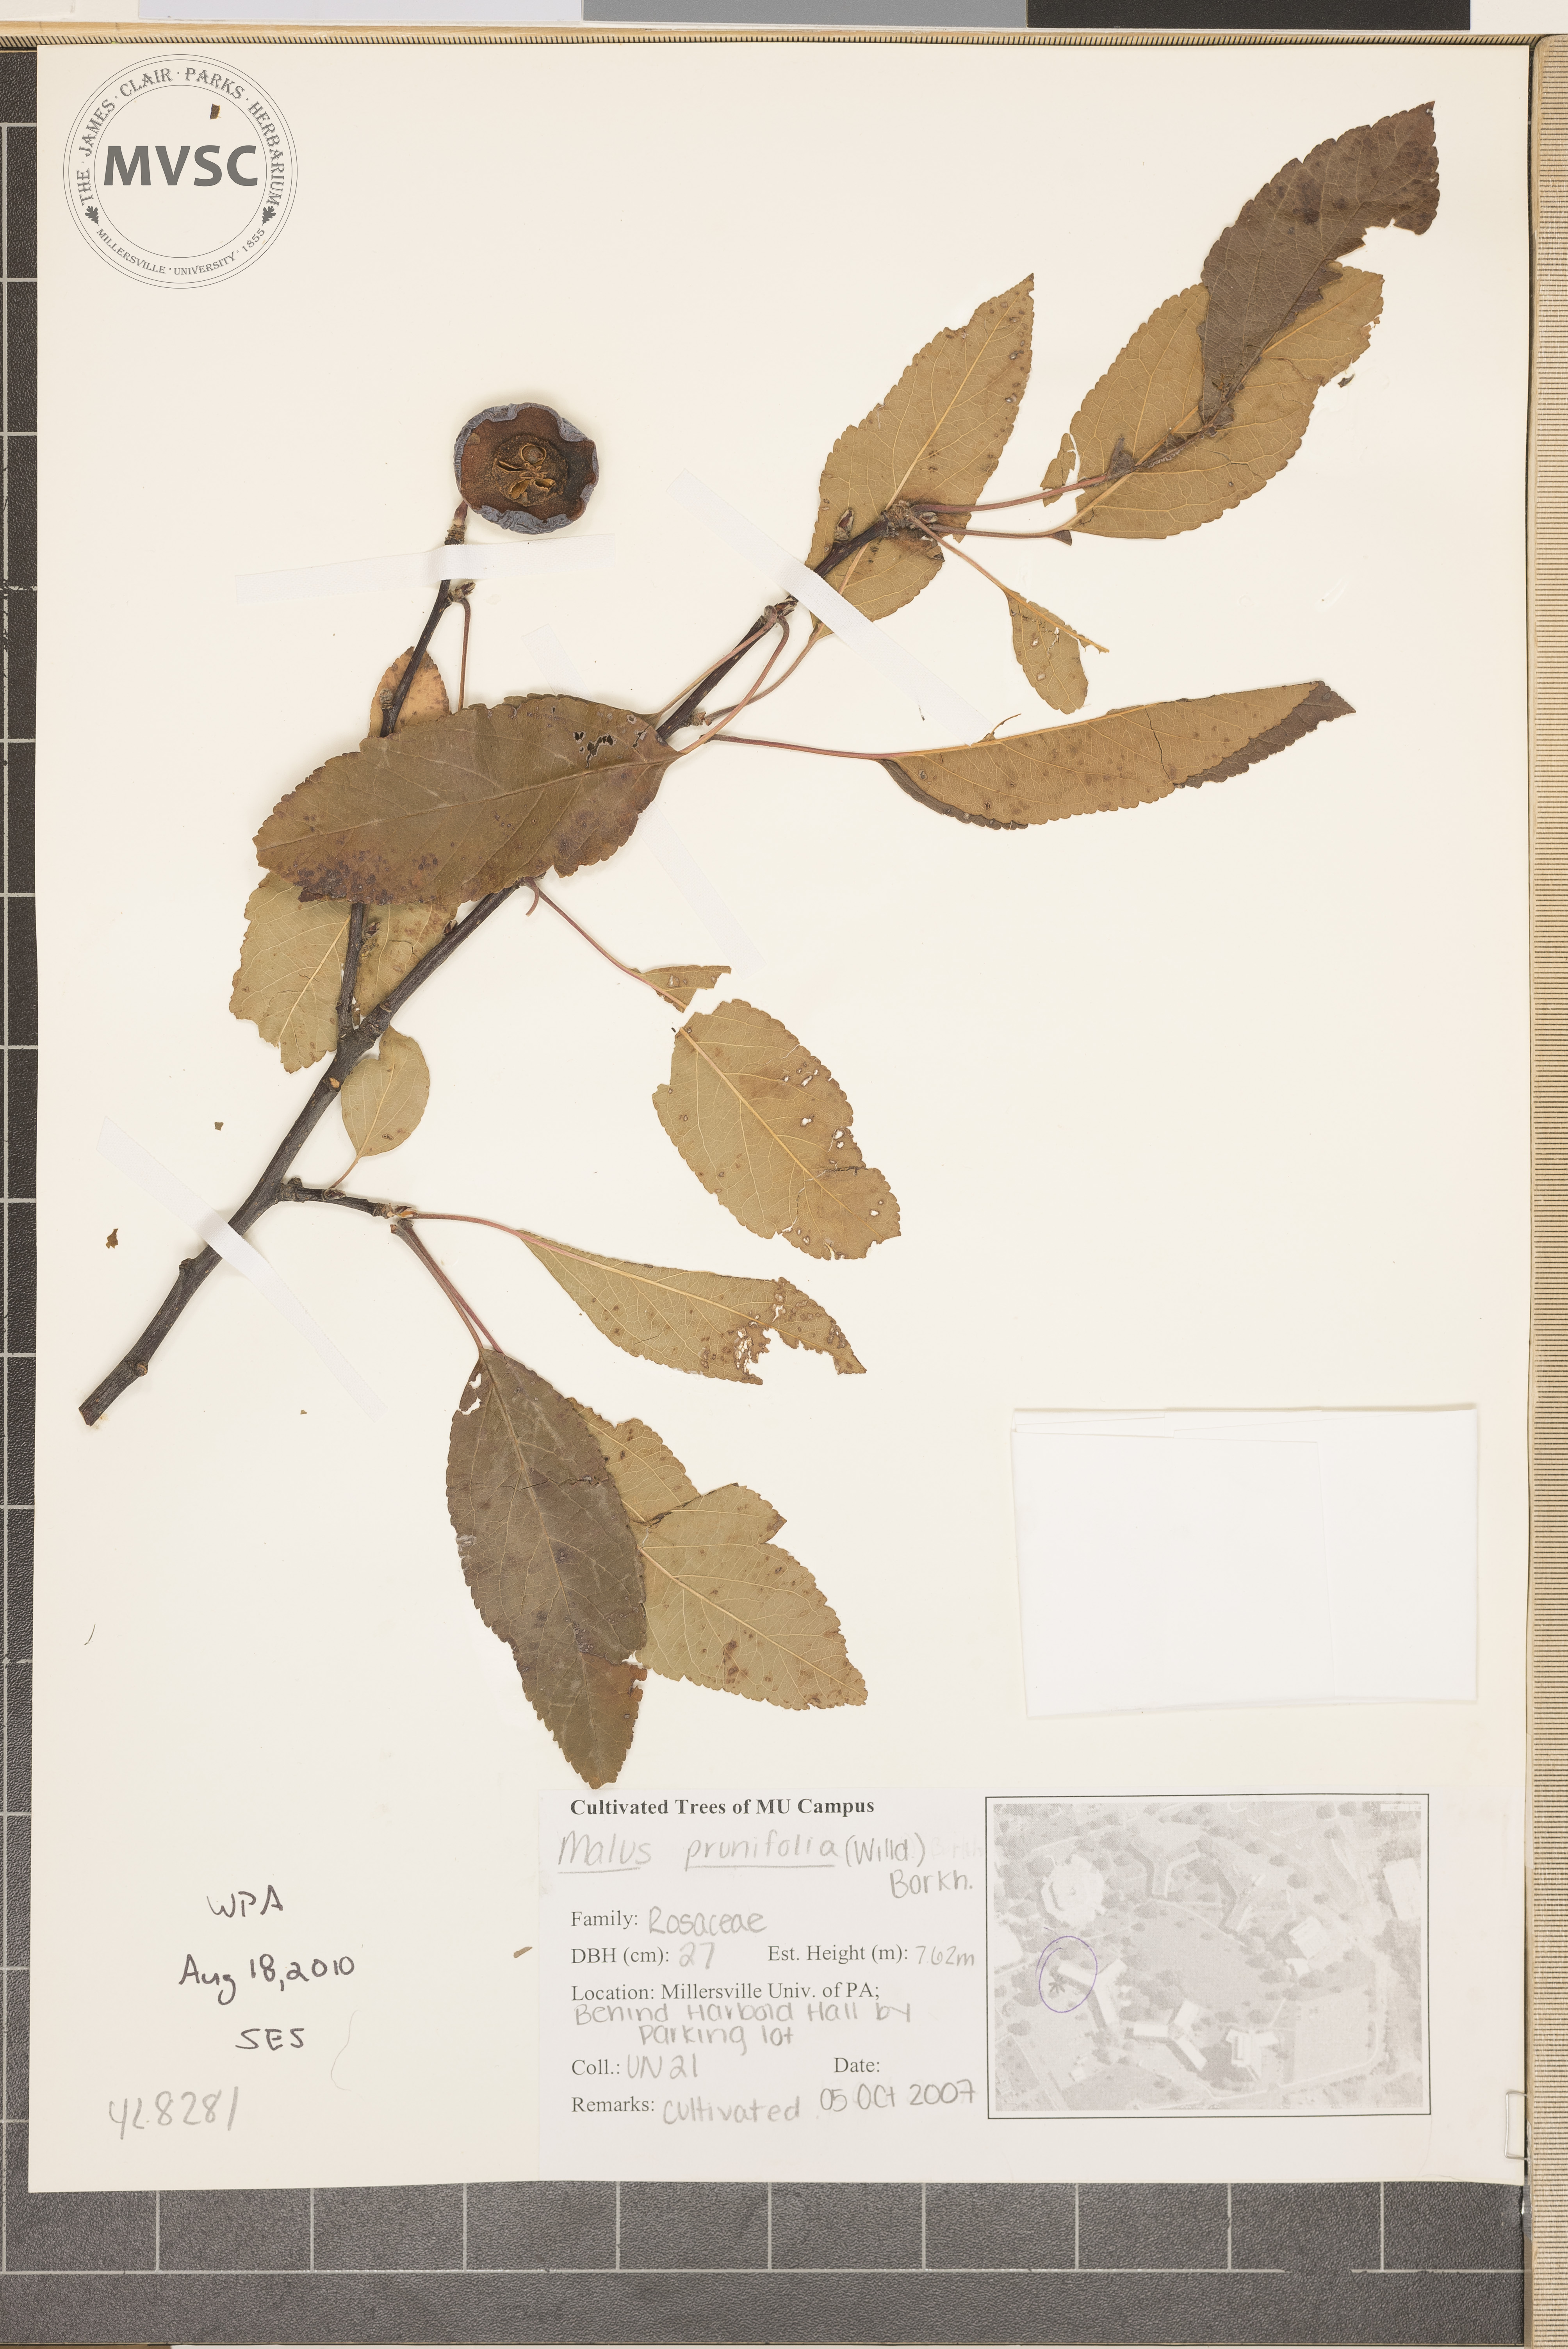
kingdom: Plantae
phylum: Tracheophyta
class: Magnoliopsida
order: Rosales
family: Rosaceae
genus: Malus
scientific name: Malus prunifolia
